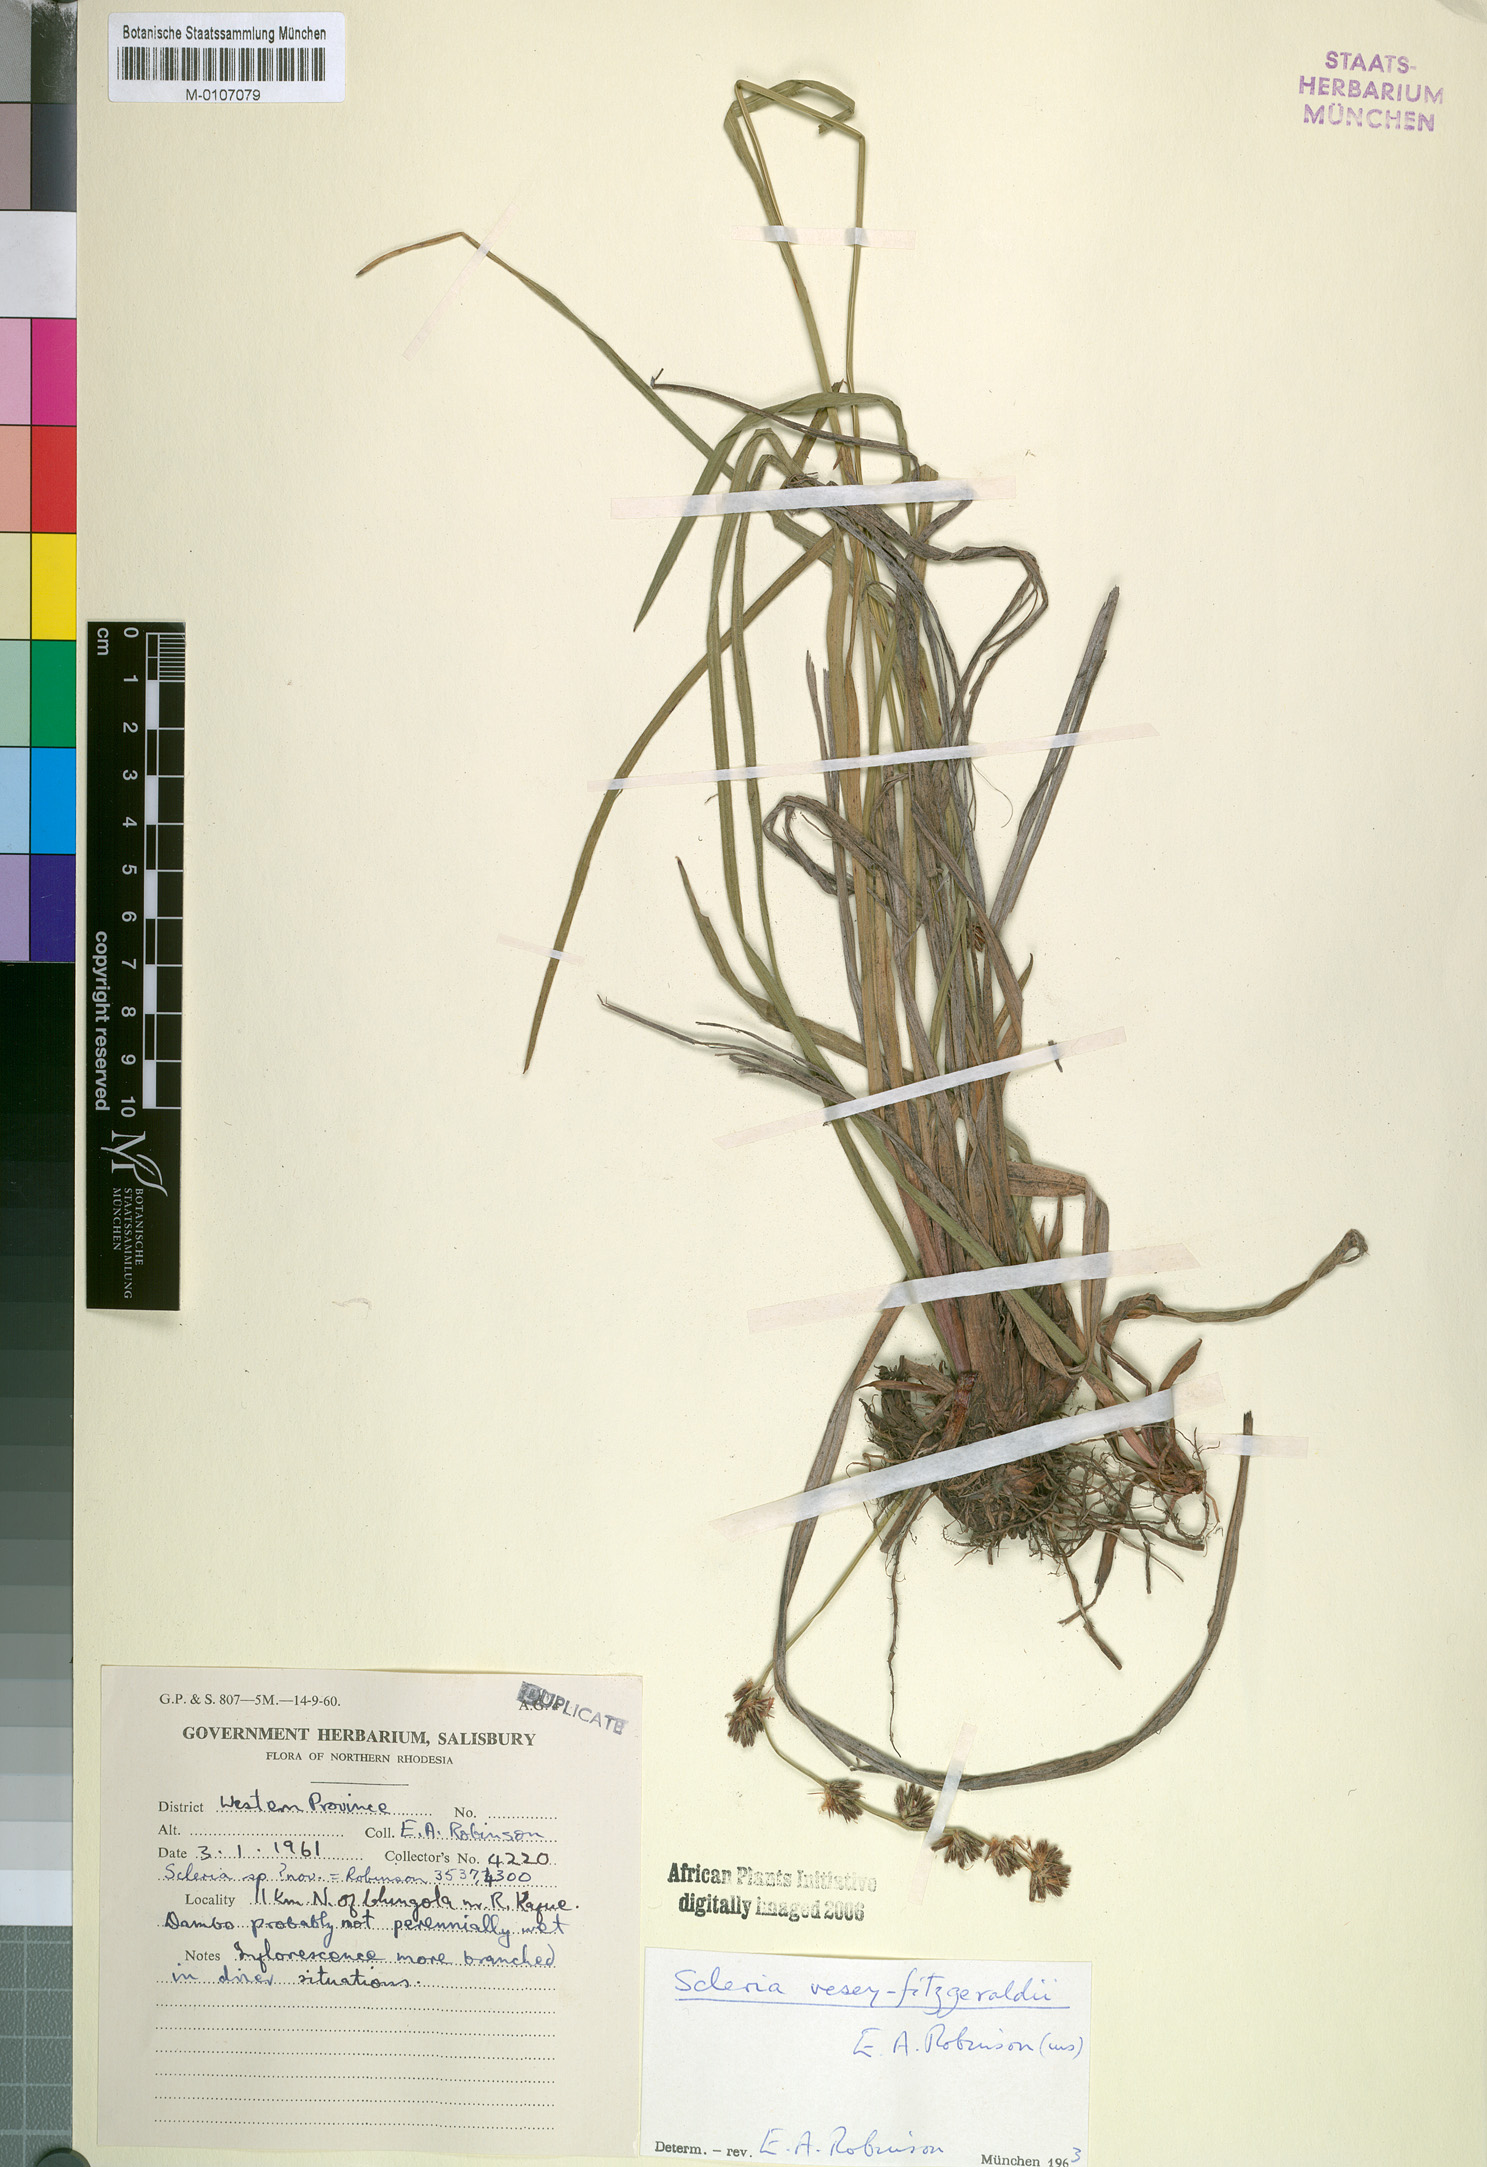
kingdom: Plantae
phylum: Tracheophyta
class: Liliopsida
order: Poales
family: Cyperaceae
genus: Scleria
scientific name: Scleria veseyfitzgeraldii
